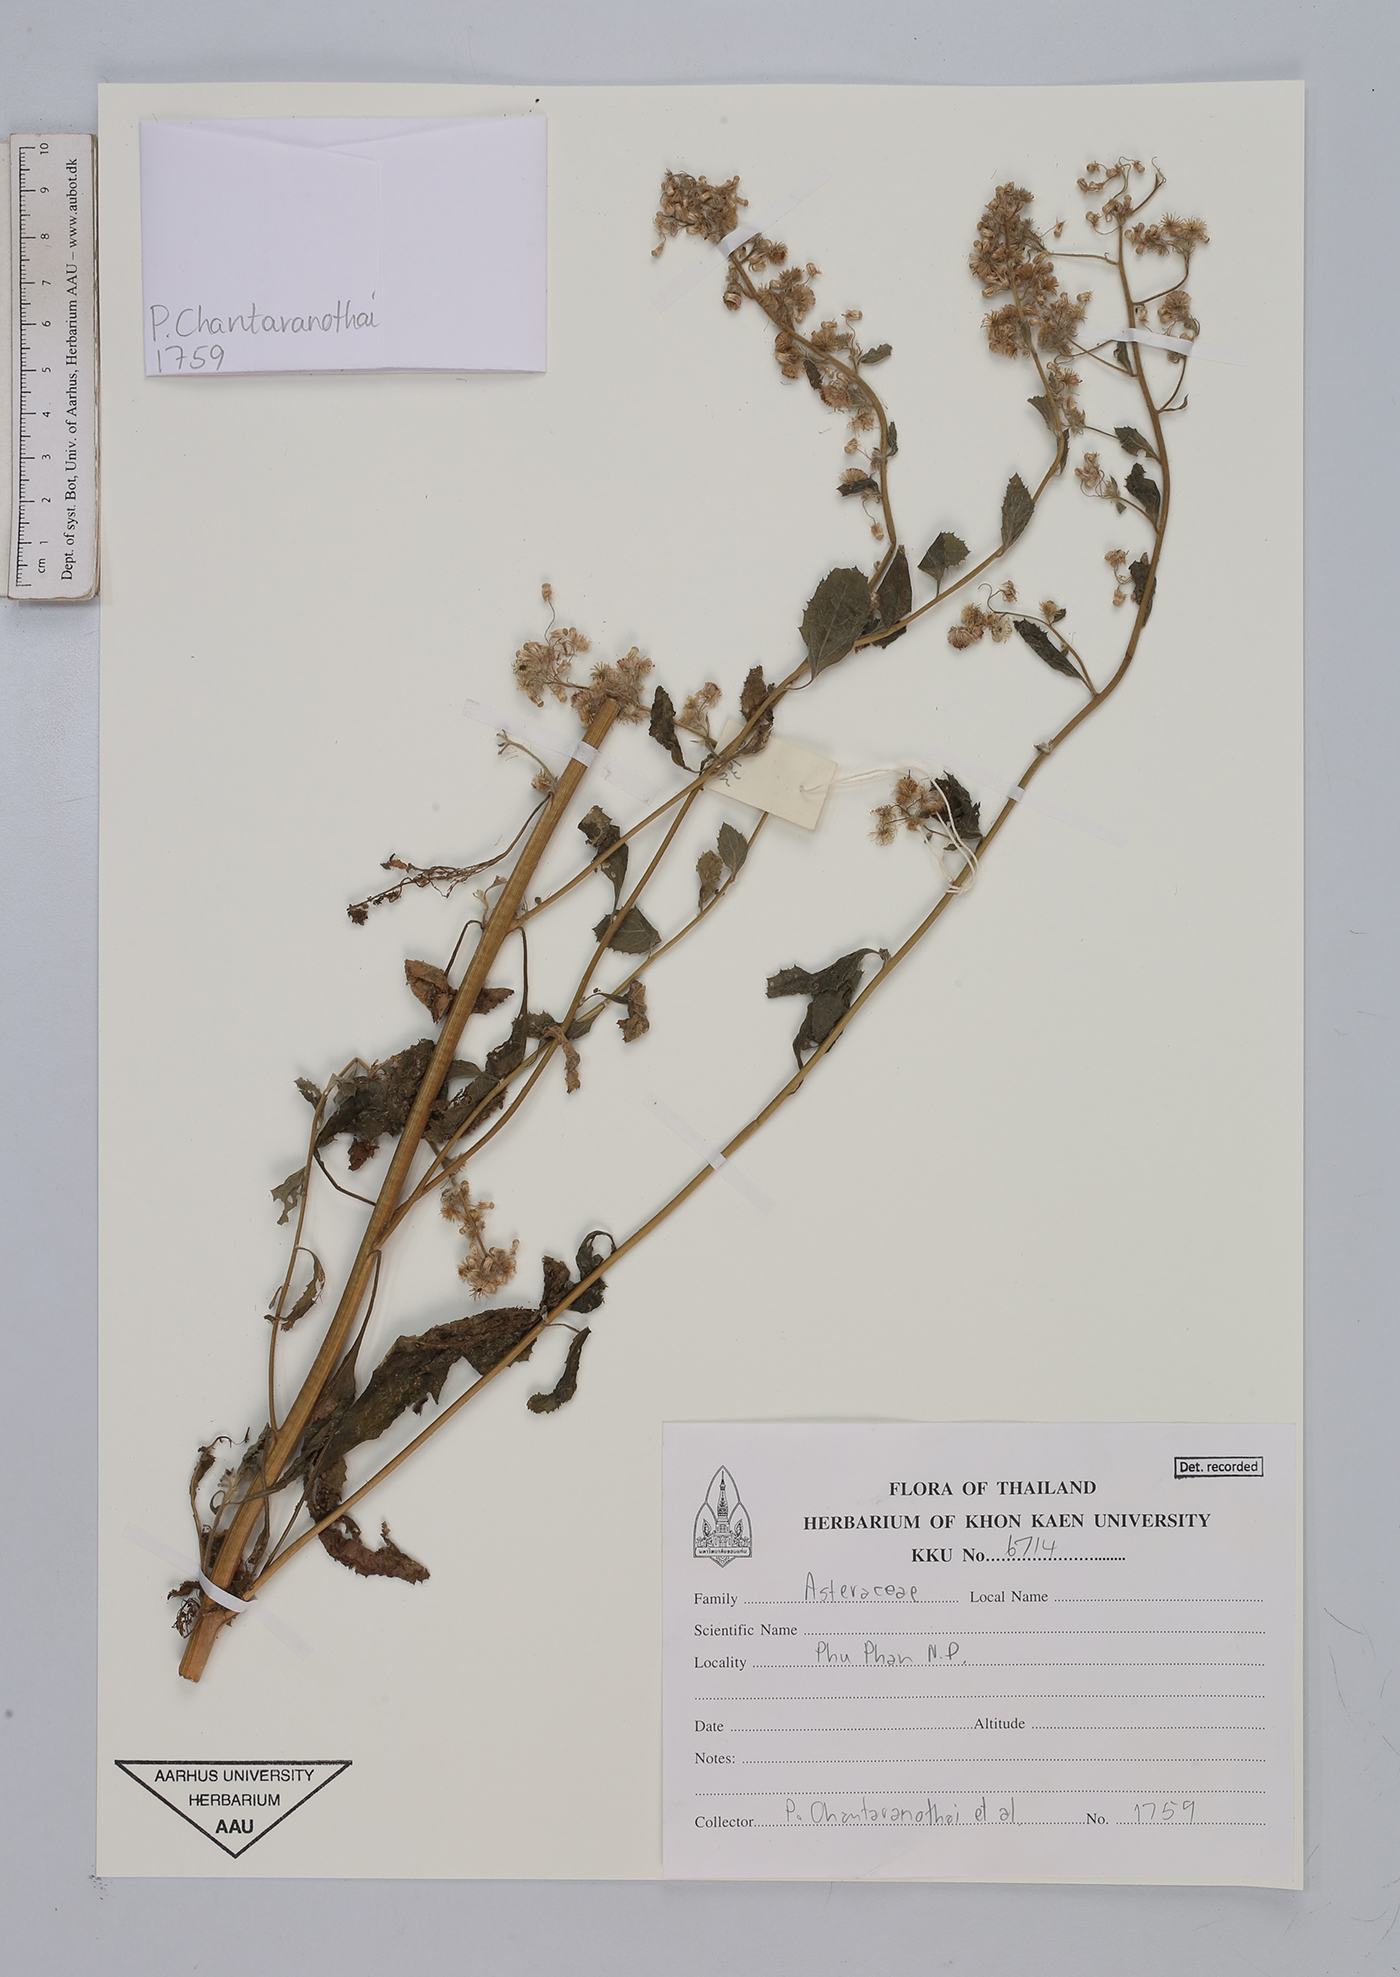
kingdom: Plantae
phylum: Tracheophyta
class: Magnoliopsida
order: Asterales
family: Asteraceae
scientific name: Asteraceae
